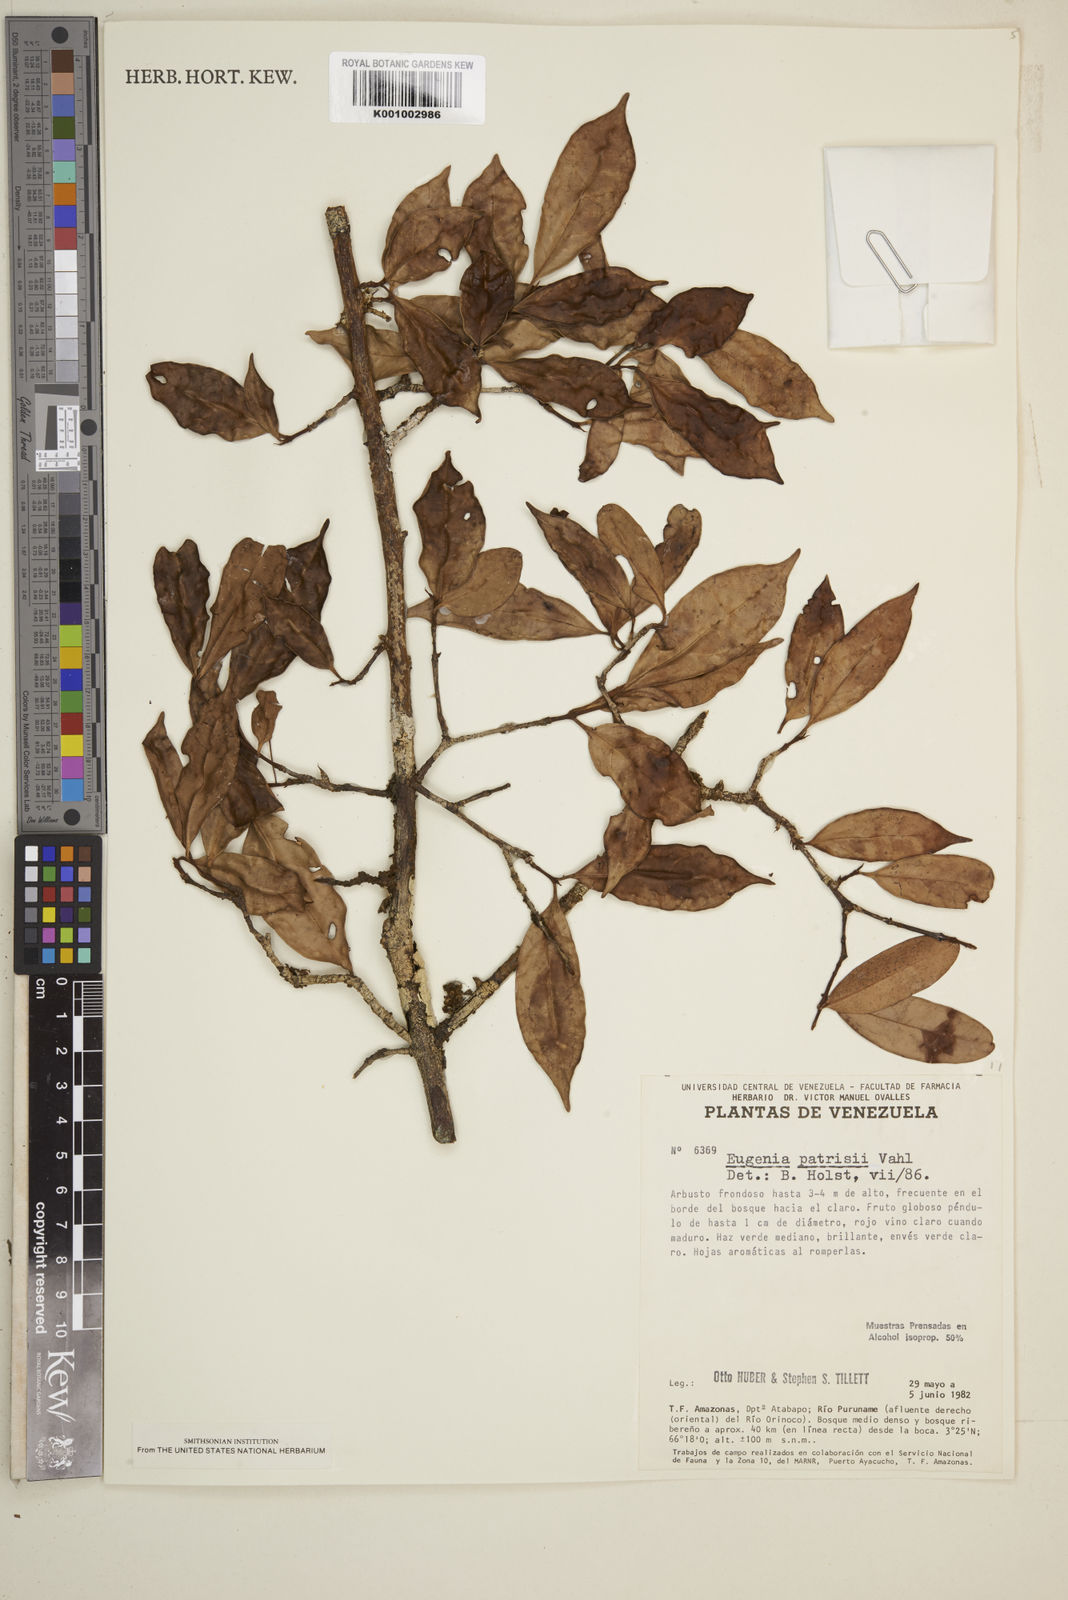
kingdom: Plantae
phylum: Tracheophyta
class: Magnoliopsida
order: Myrtales
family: Myrtaceae
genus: Eugenia
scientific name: Eugenia patrisii
